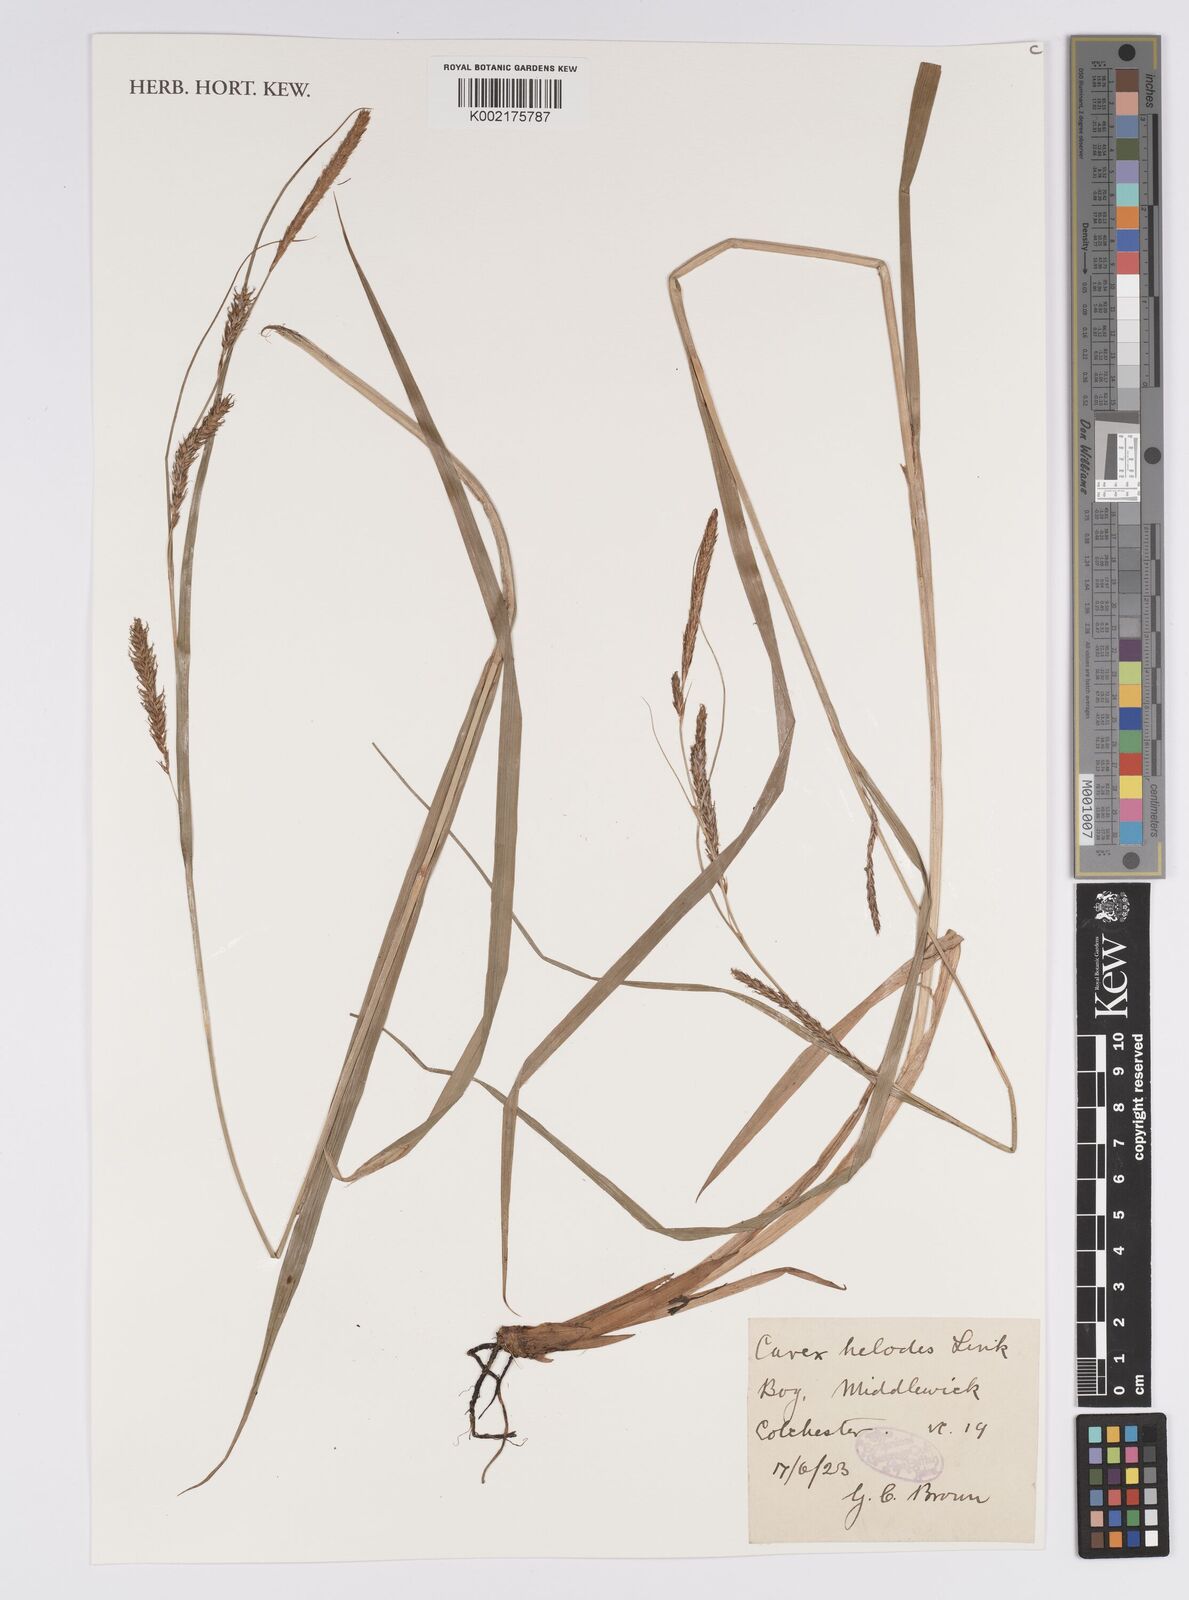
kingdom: Plantae
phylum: Tracheophyta
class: Liliopsida
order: Poales
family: Cyperaceae
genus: Carex
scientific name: Carex laevigata
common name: Smooth-stalked sedge
